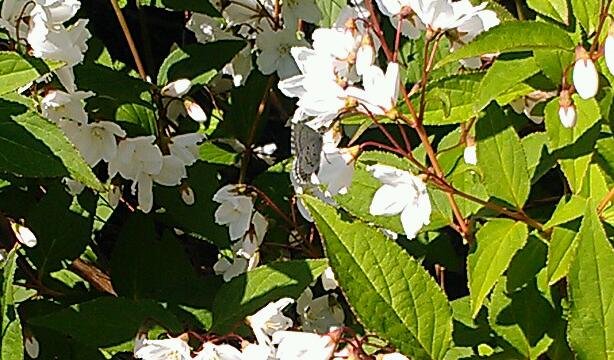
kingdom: Animalia
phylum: Arthropoda
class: Insecta
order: Lepidoptera
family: Lycaenidae
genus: Celastrina
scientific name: Celastrina lucia
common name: Northern Spring Azure
